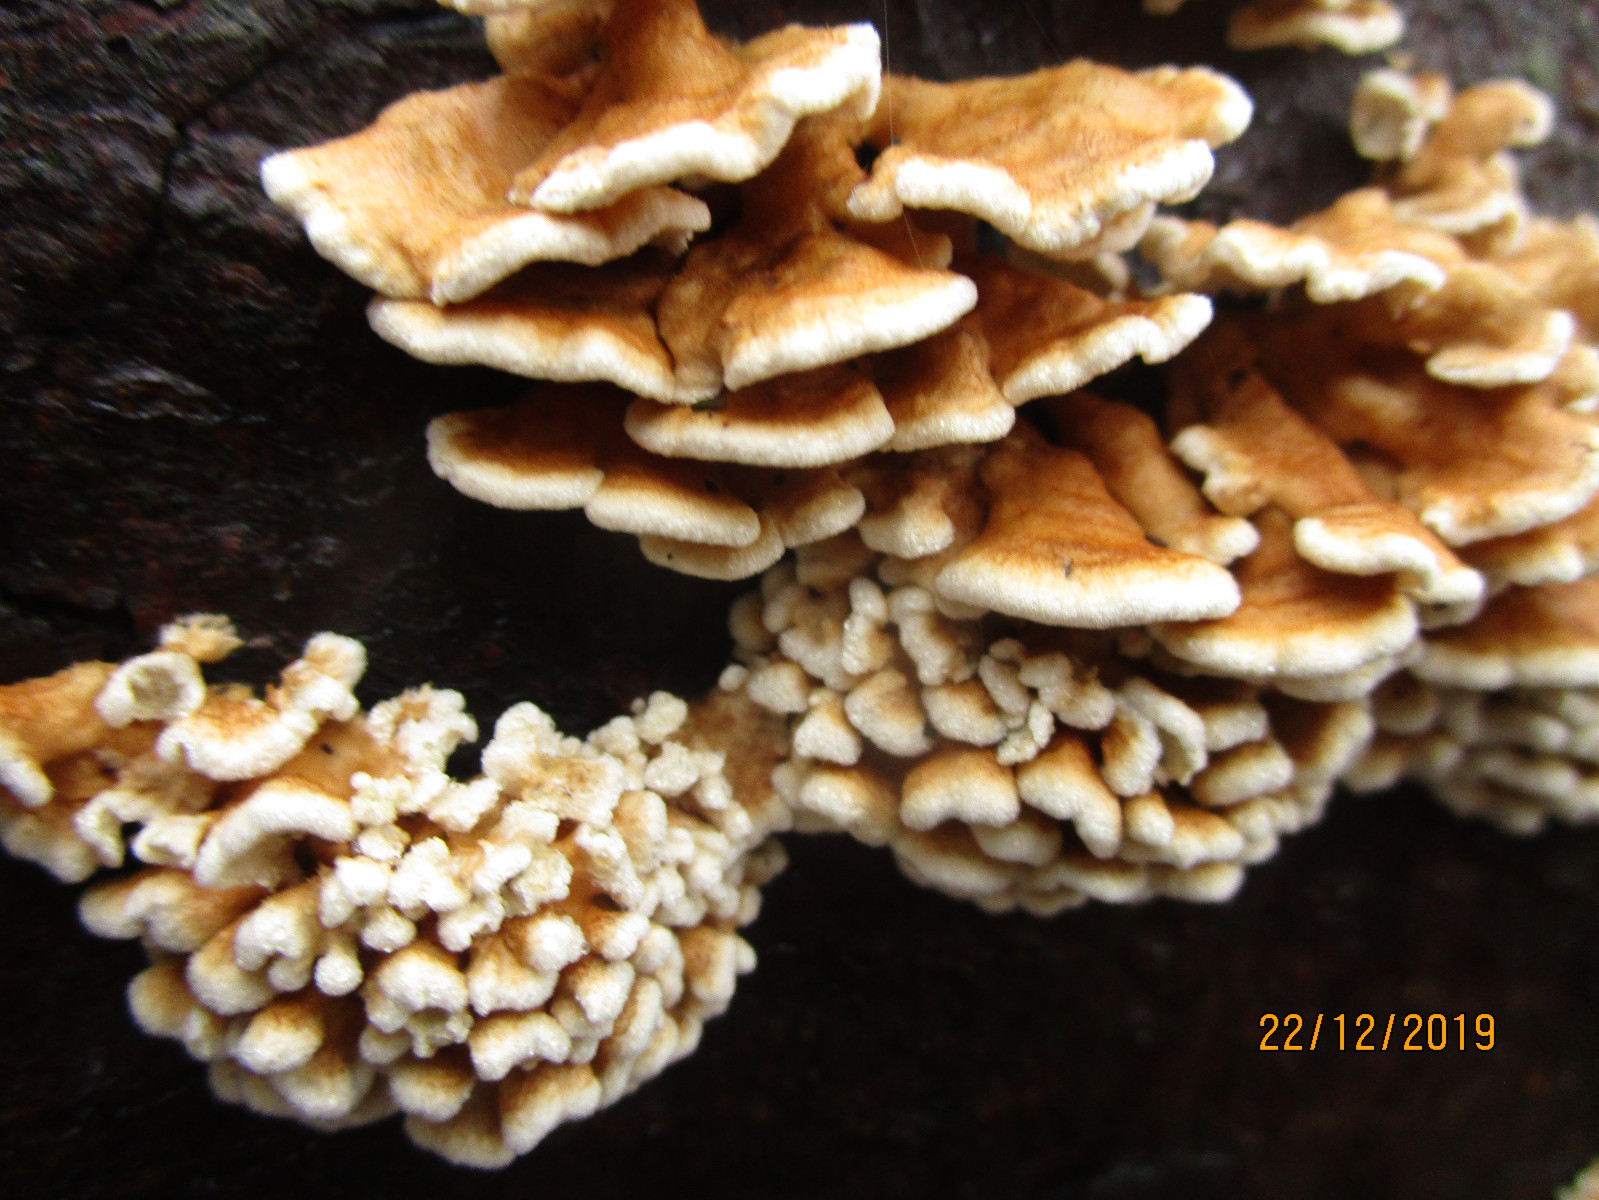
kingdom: Fungi
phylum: Basidiomycota
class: Agaricomycetes
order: Amylocorticiales
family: Amylocorticiaceae
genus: Plicaturopsis
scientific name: Plicaturopsis crispa
